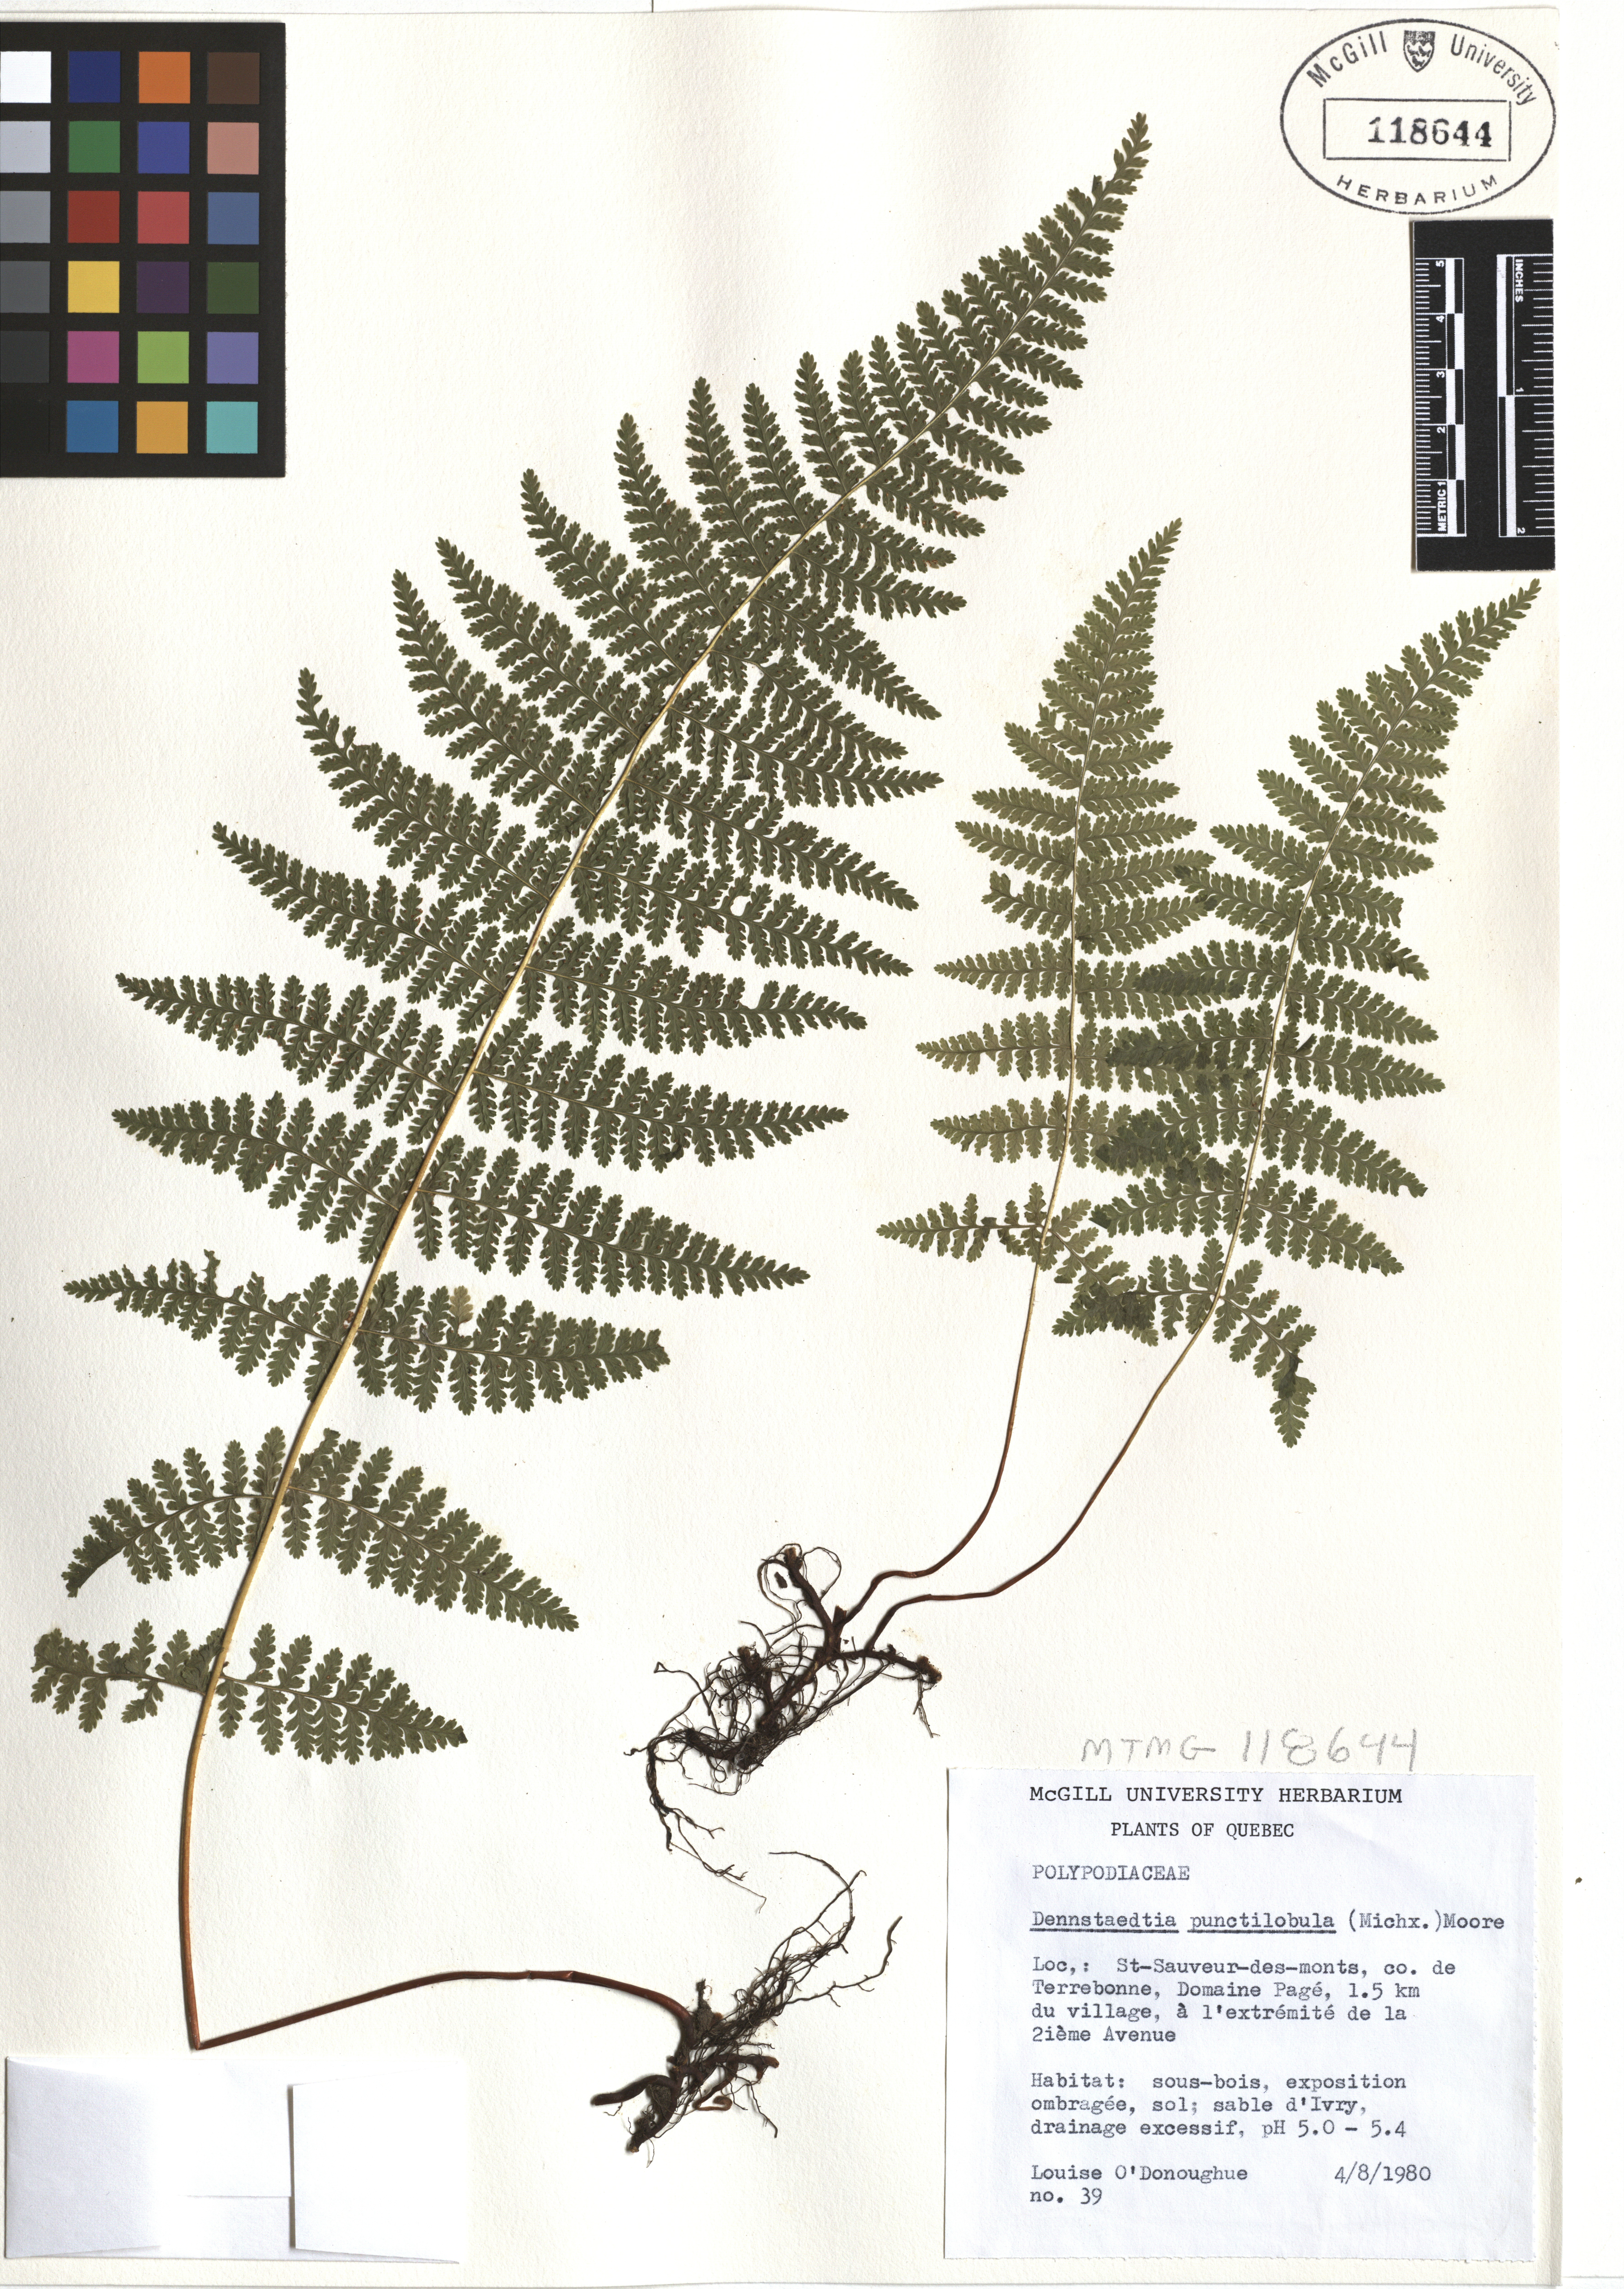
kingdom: Plantae
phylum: Tracheophyta
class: Polypodiopsida
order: Polypodiales
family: Dennstaedtiaceae
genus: Sitobolium
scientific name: Sitobolium punctilobum
